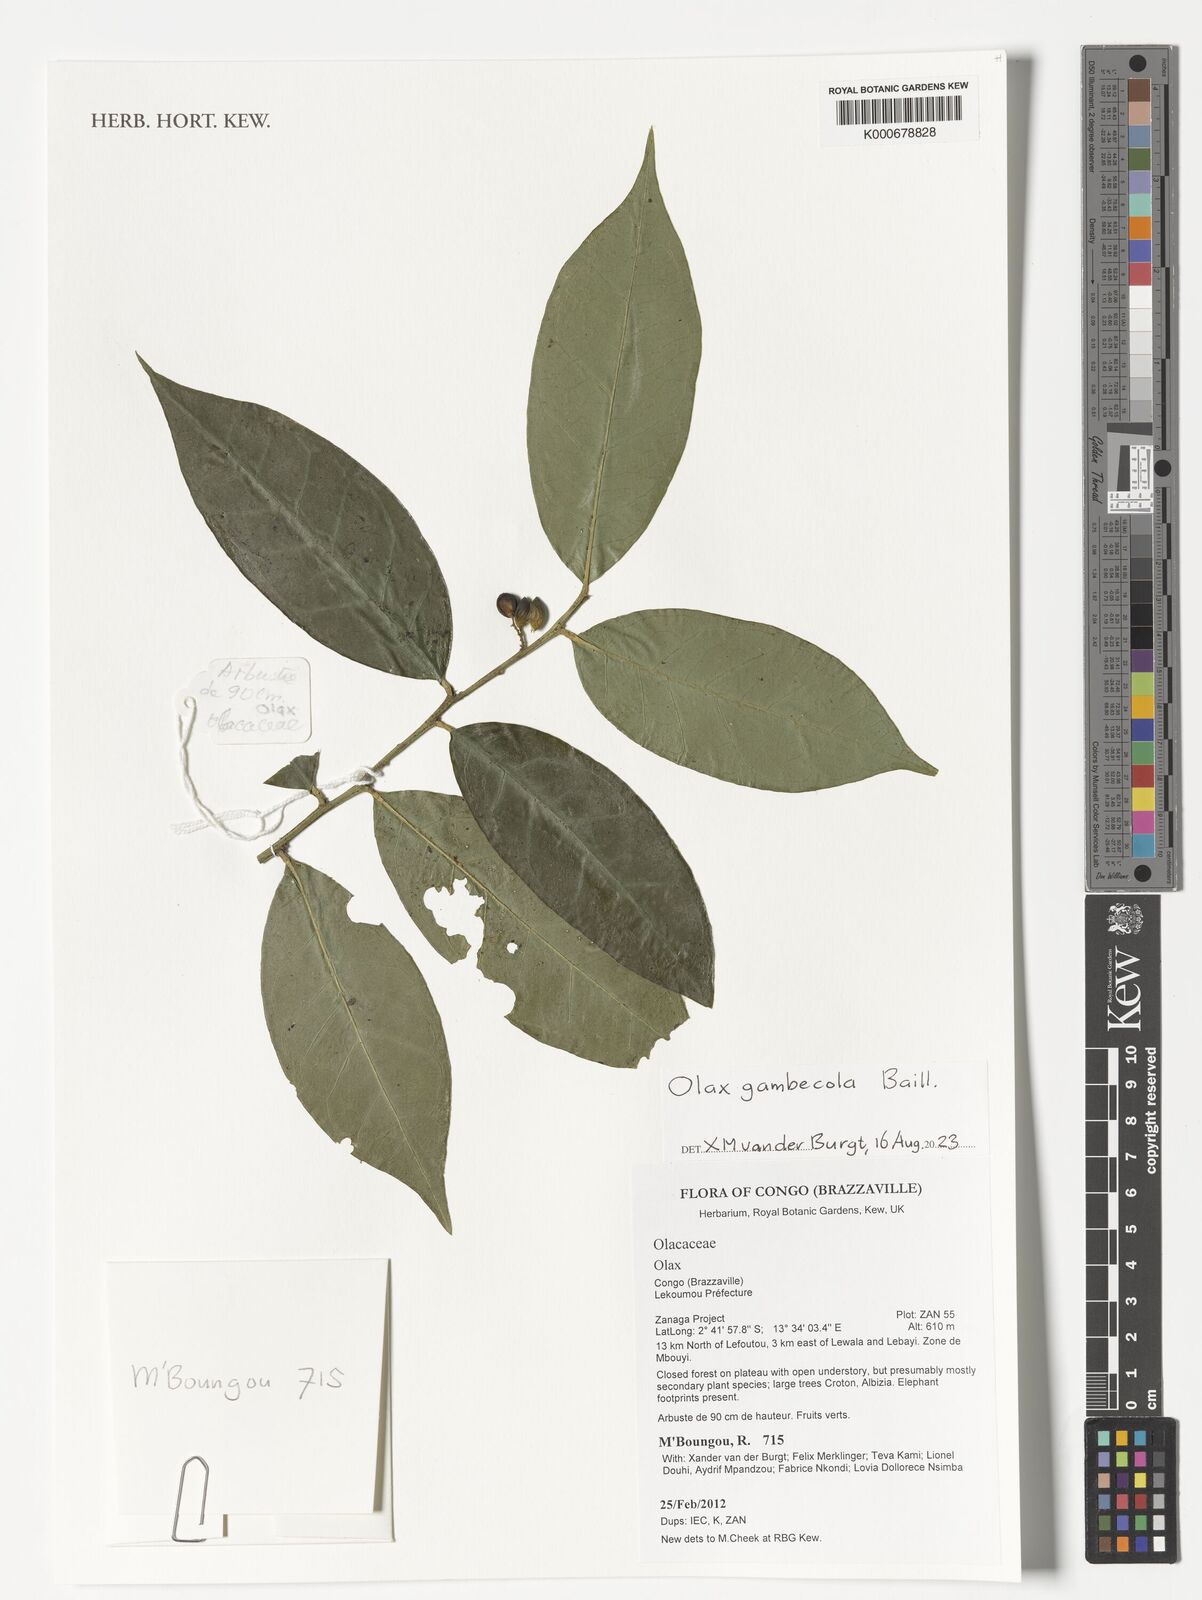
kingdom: Plantae
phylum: Tracheophyta
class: Magnoliopsida
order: Santalales
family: Olacaceae
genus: Olax
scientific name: Olax gambecola
